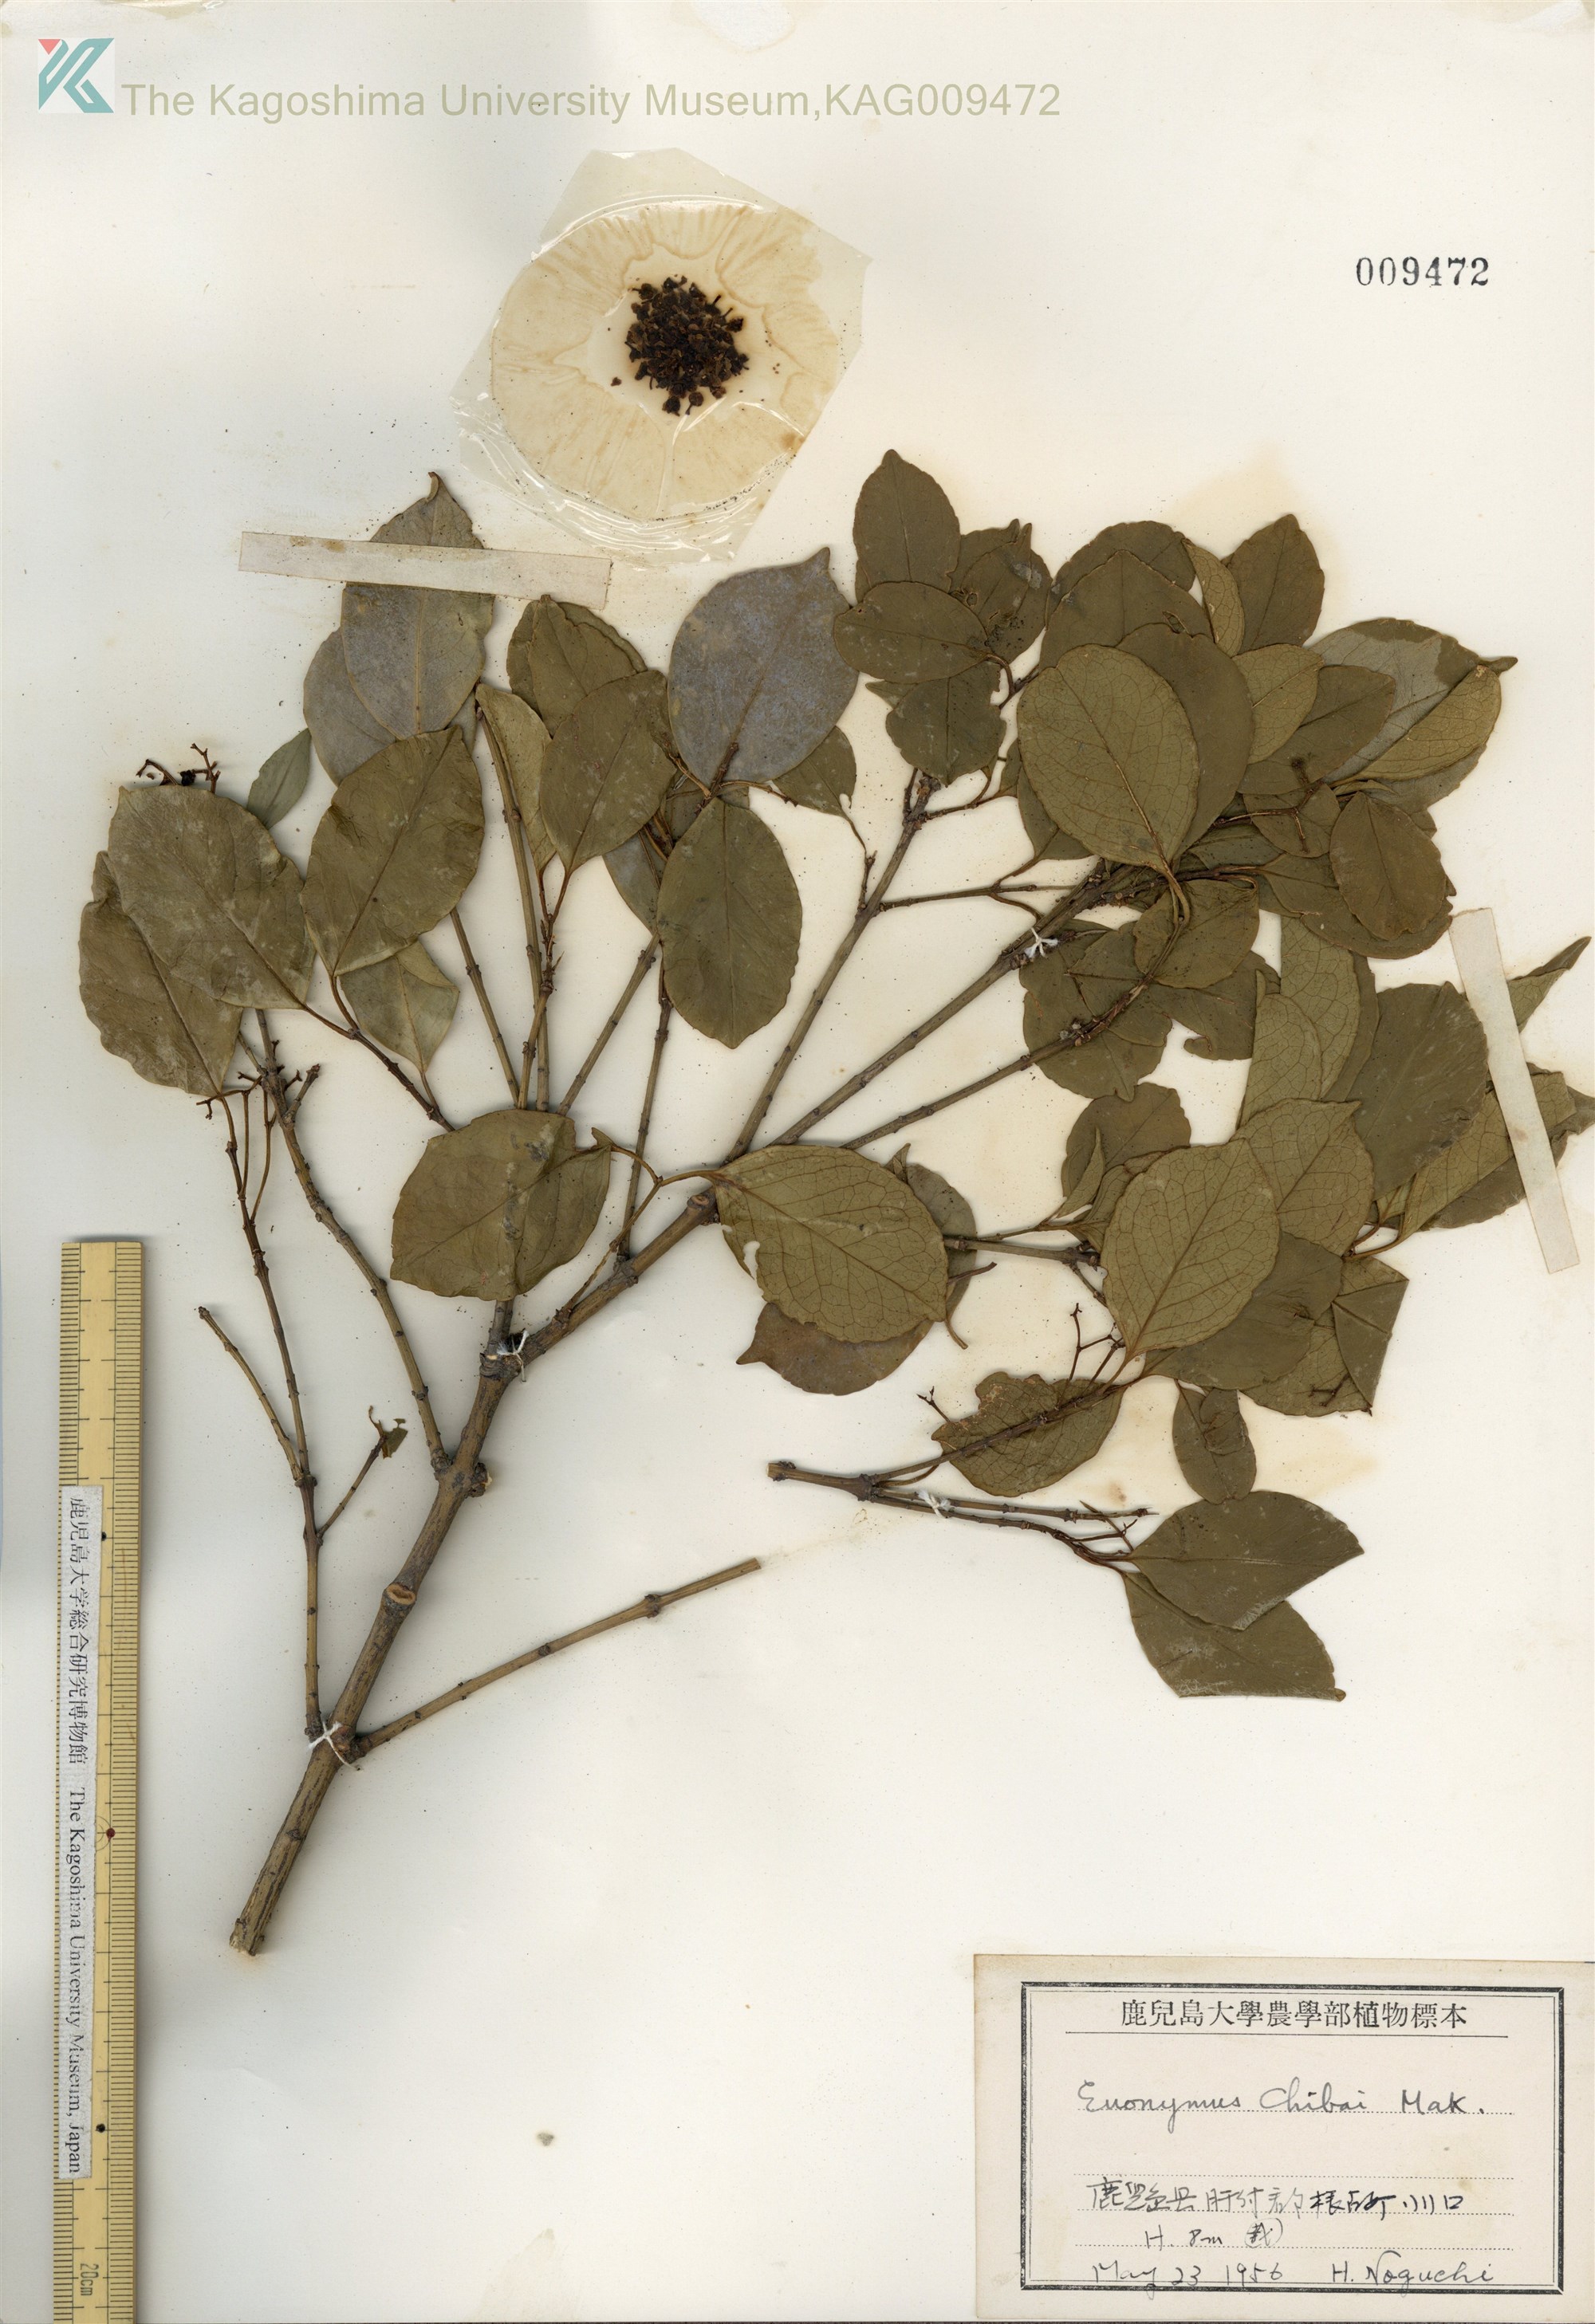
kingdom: Plantae
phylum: Tracheophyta
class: Magnoliopsida
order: Celastrales
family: Celastraceae
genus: Euonymus
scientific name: Euonymus chibae
